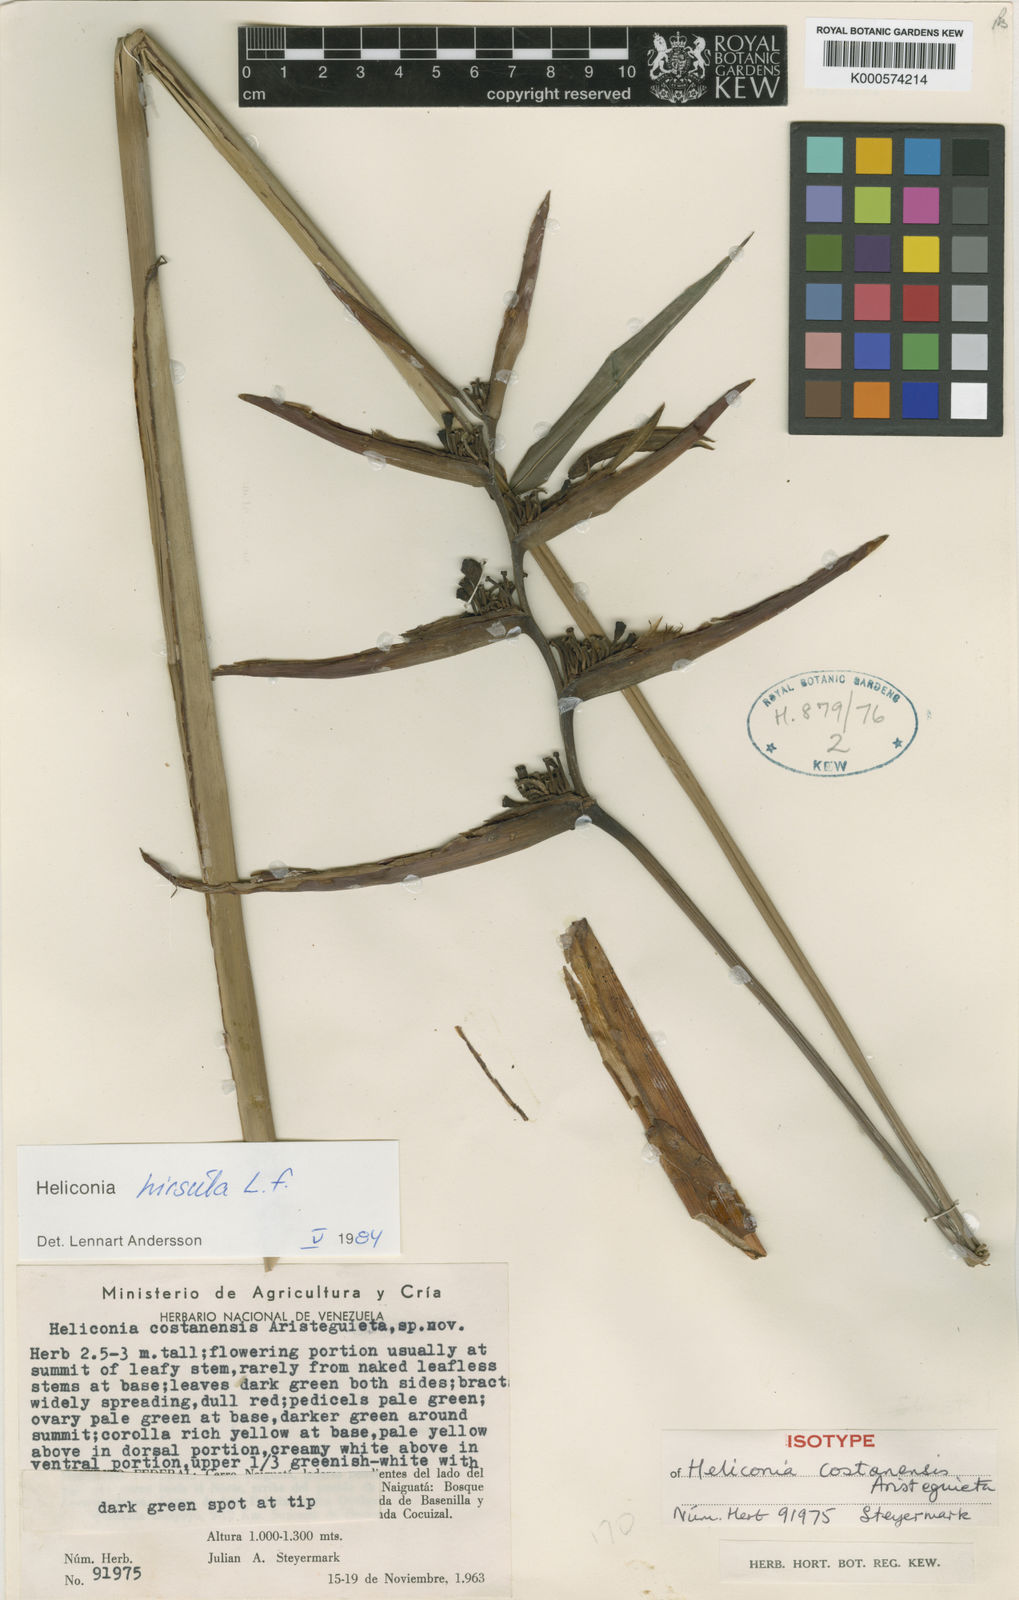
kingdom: Plantae
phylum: Tracheophyta
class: Liliopsida
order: Zingiberales
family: Heliconiaceae
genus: Heliconia
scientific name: Heliconia hirsuta
